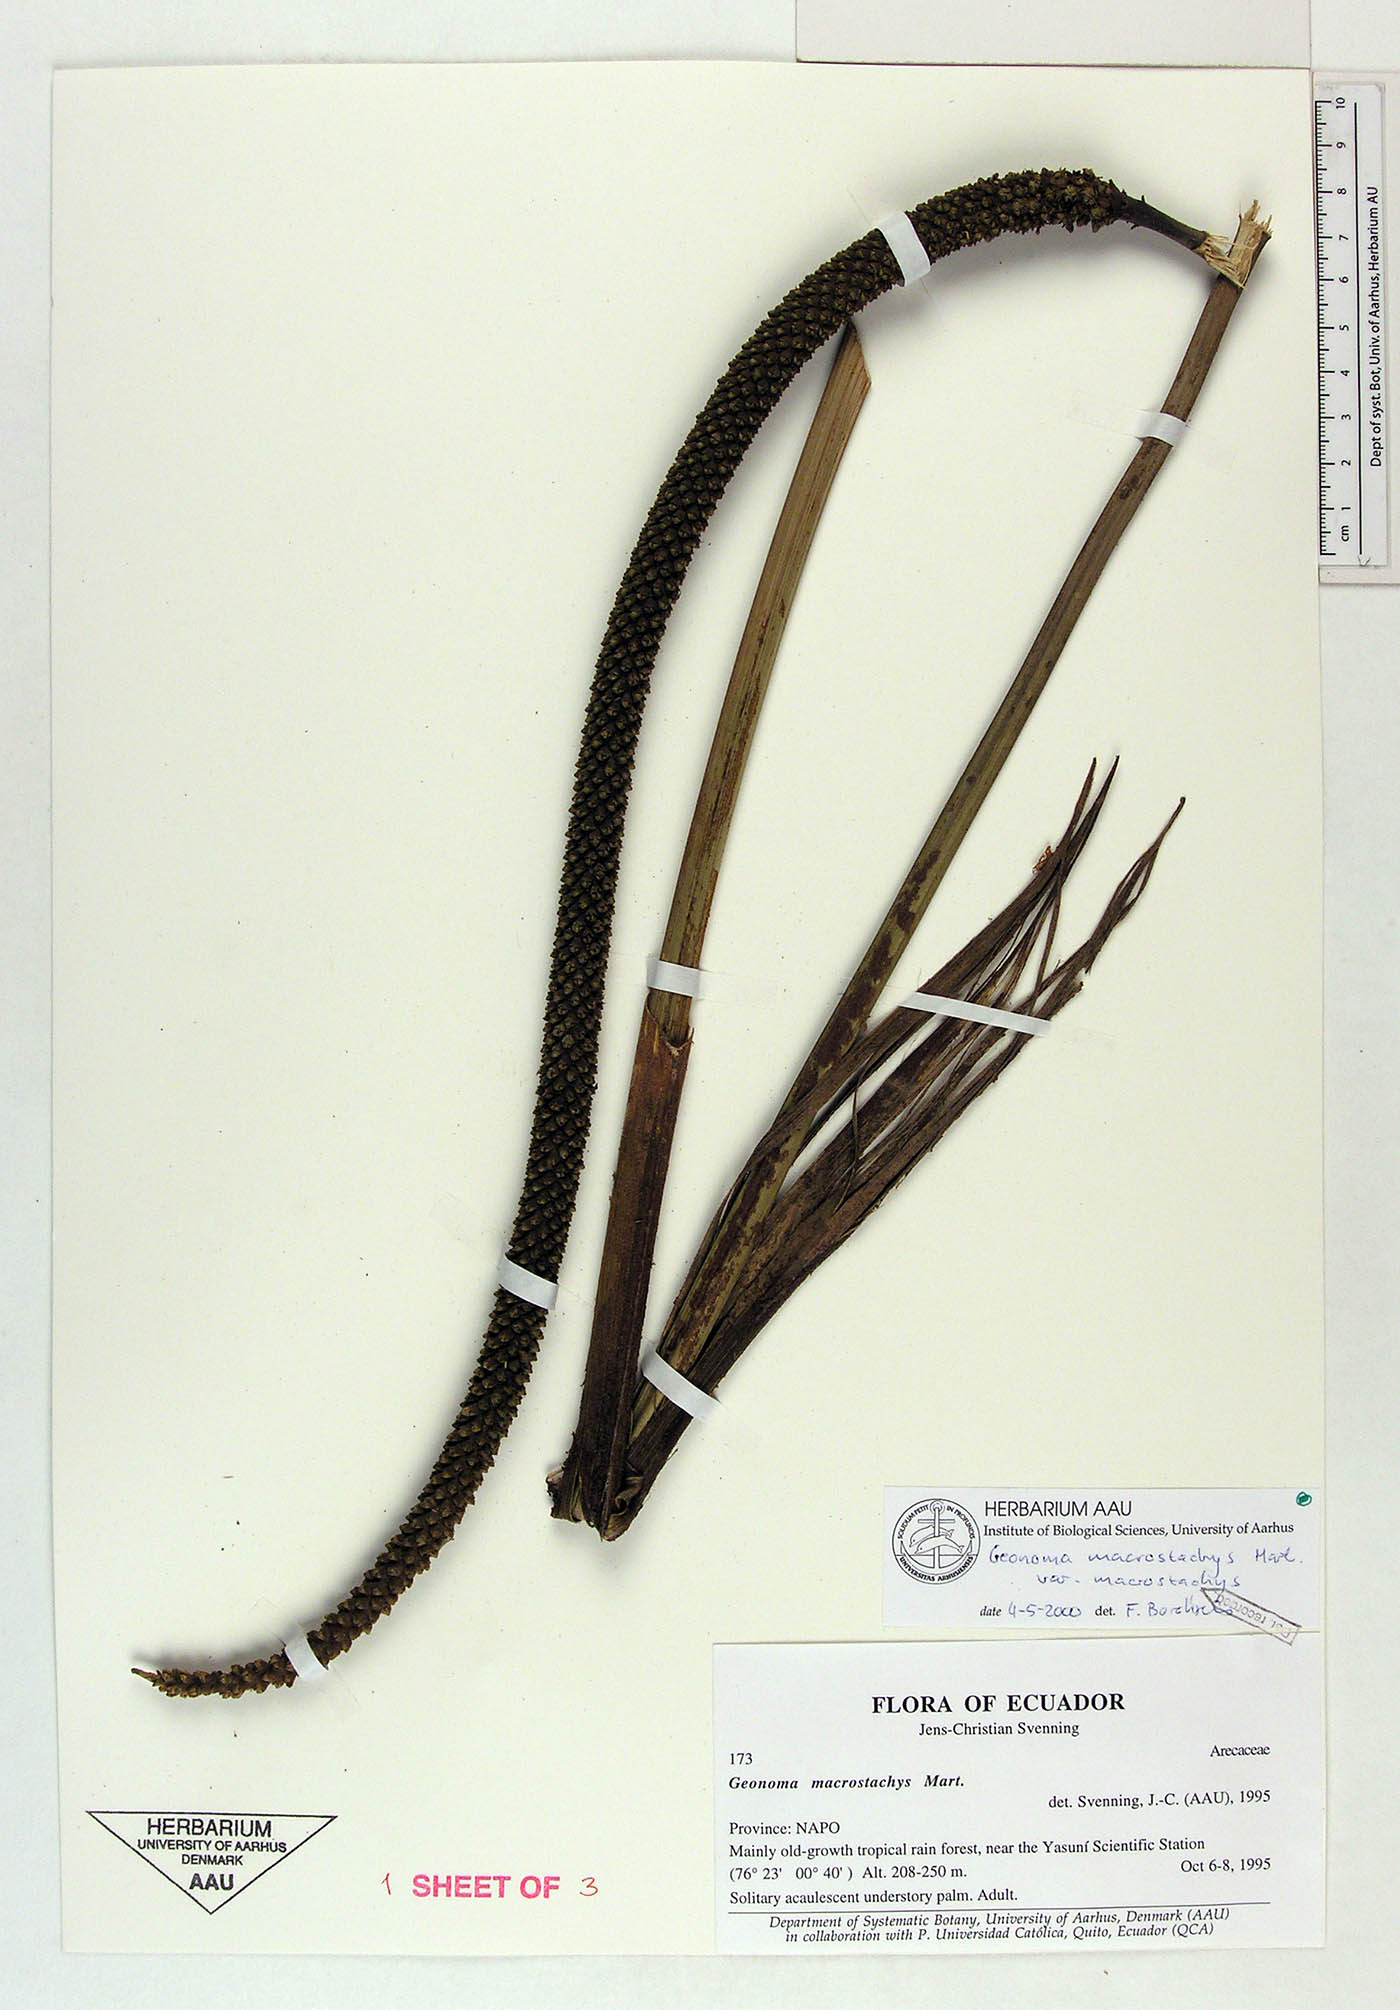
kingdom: Plantae
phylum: Tracheophyta
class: Liliopsida
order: Arecales
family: Arecaceae
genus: Geonoma
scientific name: Geonoma macrostachys
